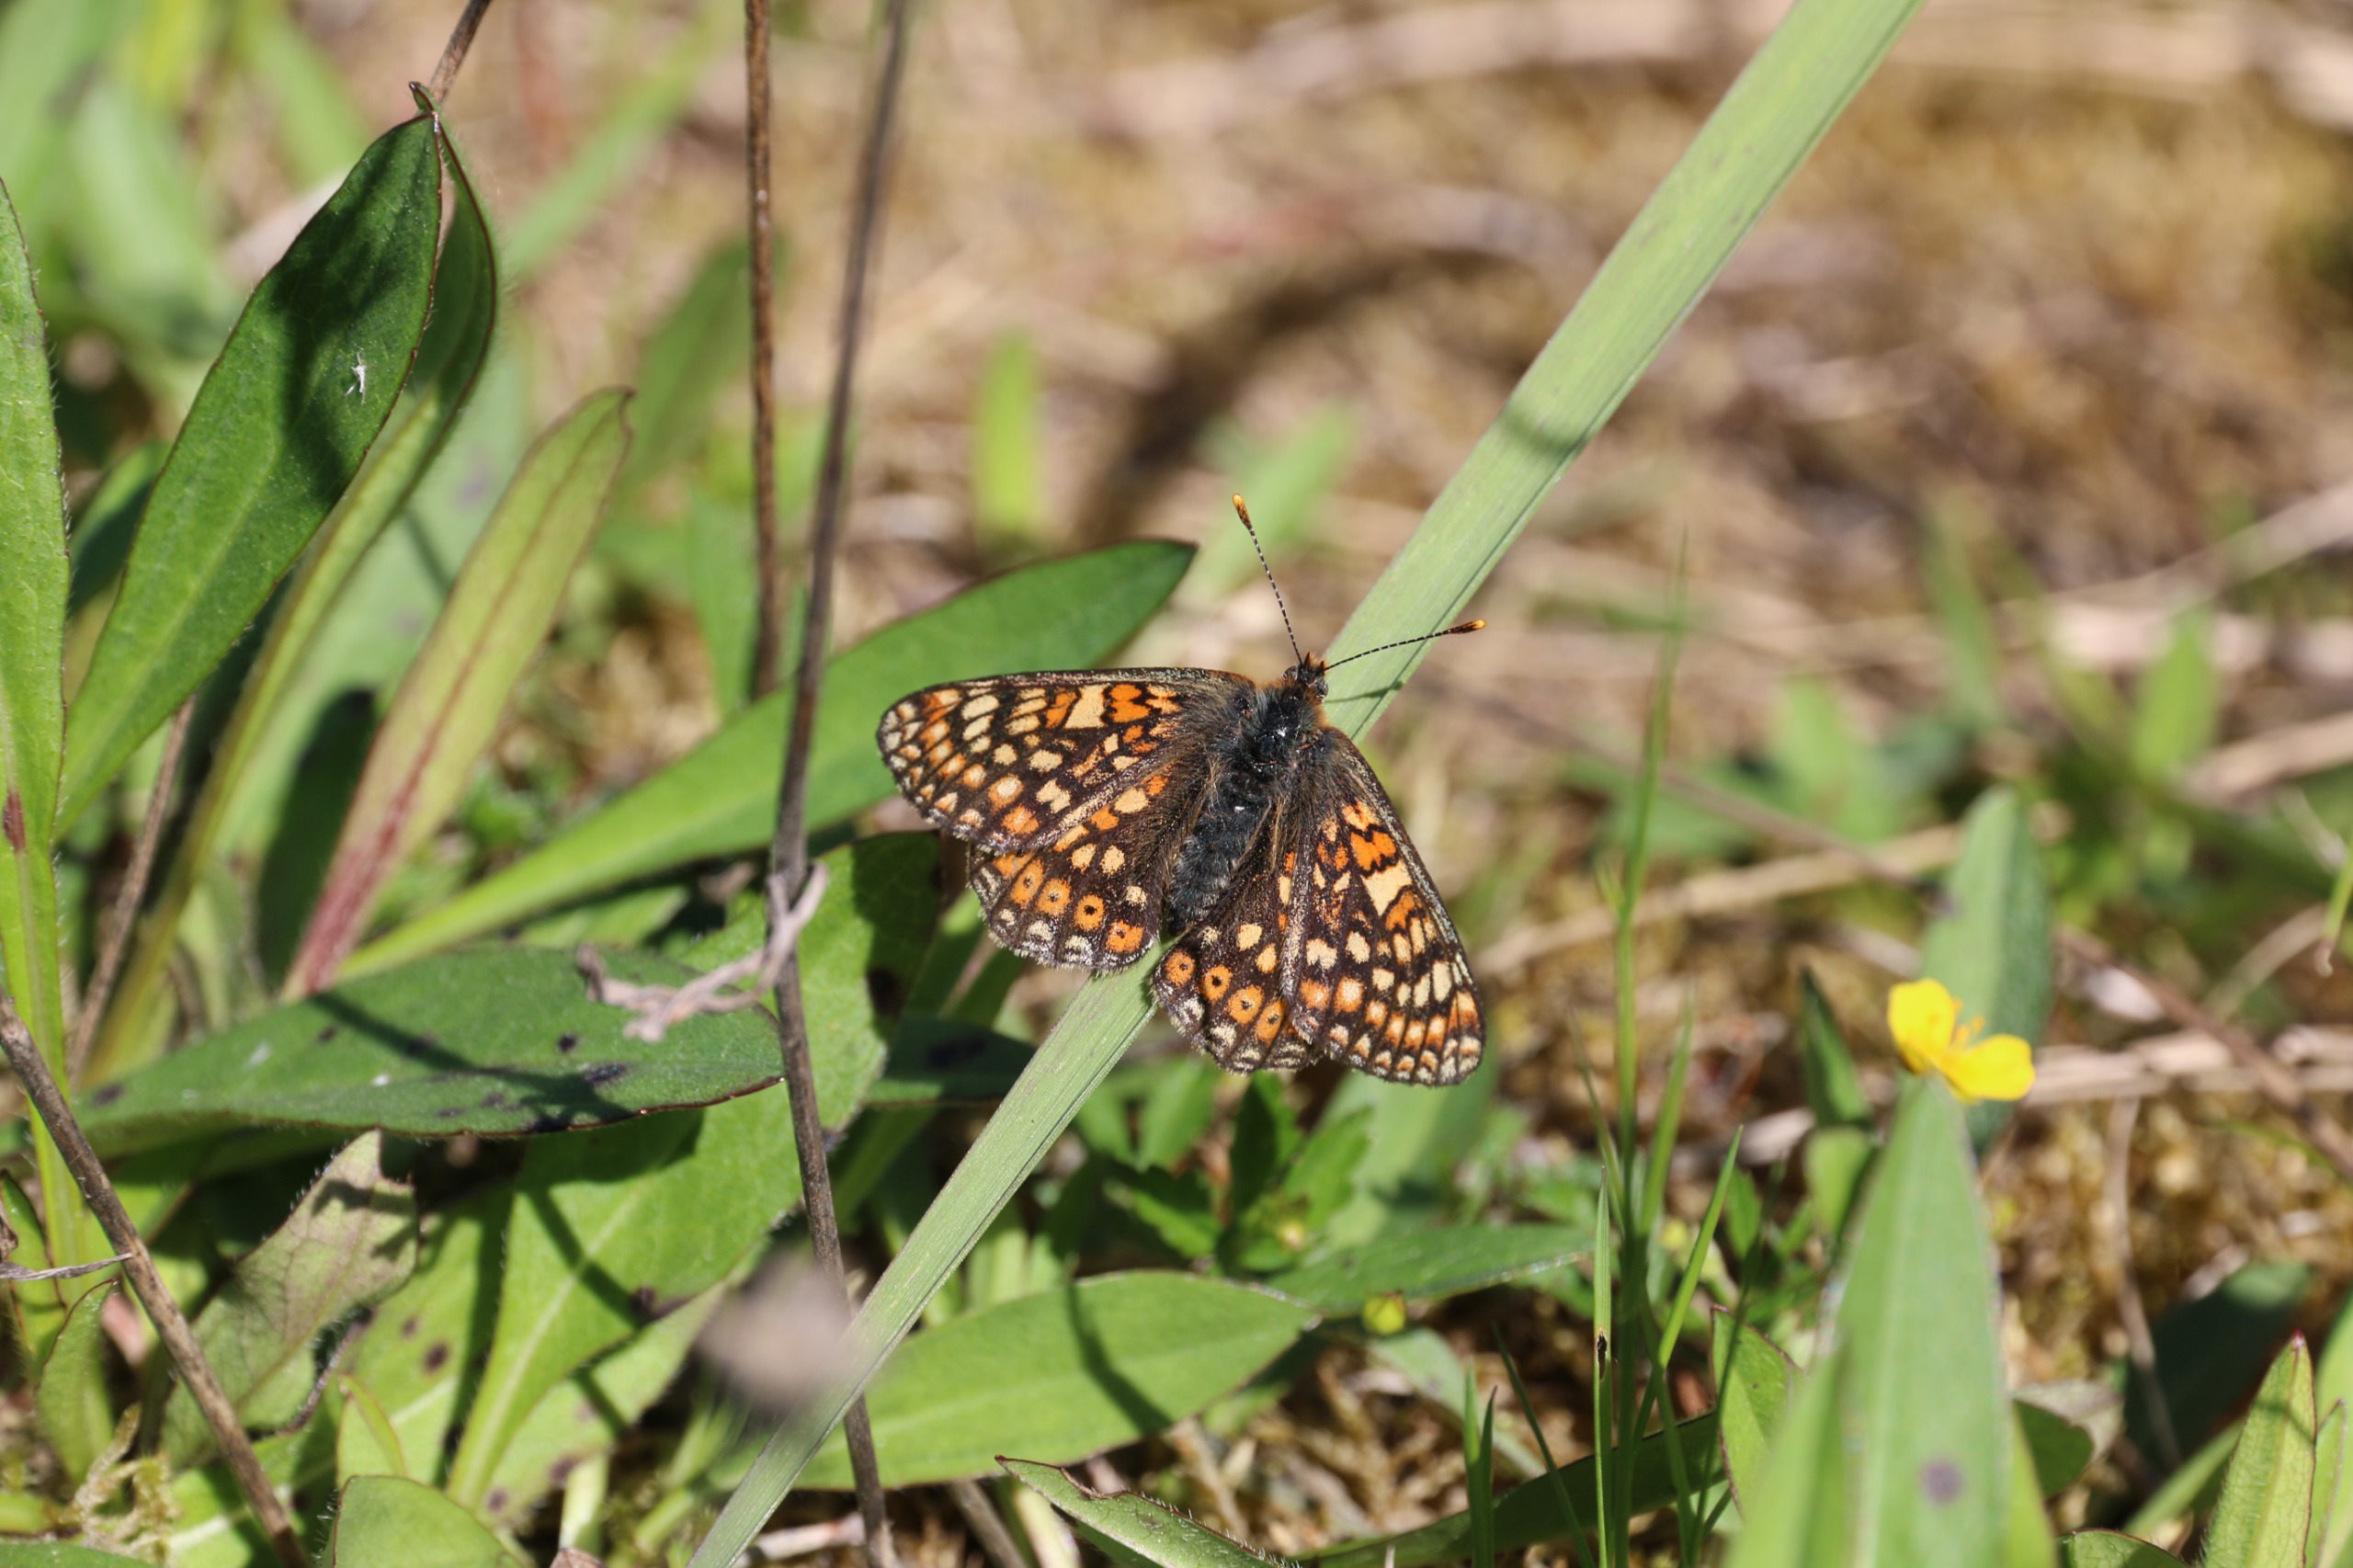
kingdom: Animalia
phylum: Arthropoda
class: Insecta
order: Lepidoptera
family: Nymphalidae
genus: Euphydryas
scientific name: Euphydryas aurinia
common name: Hedepletvinge
